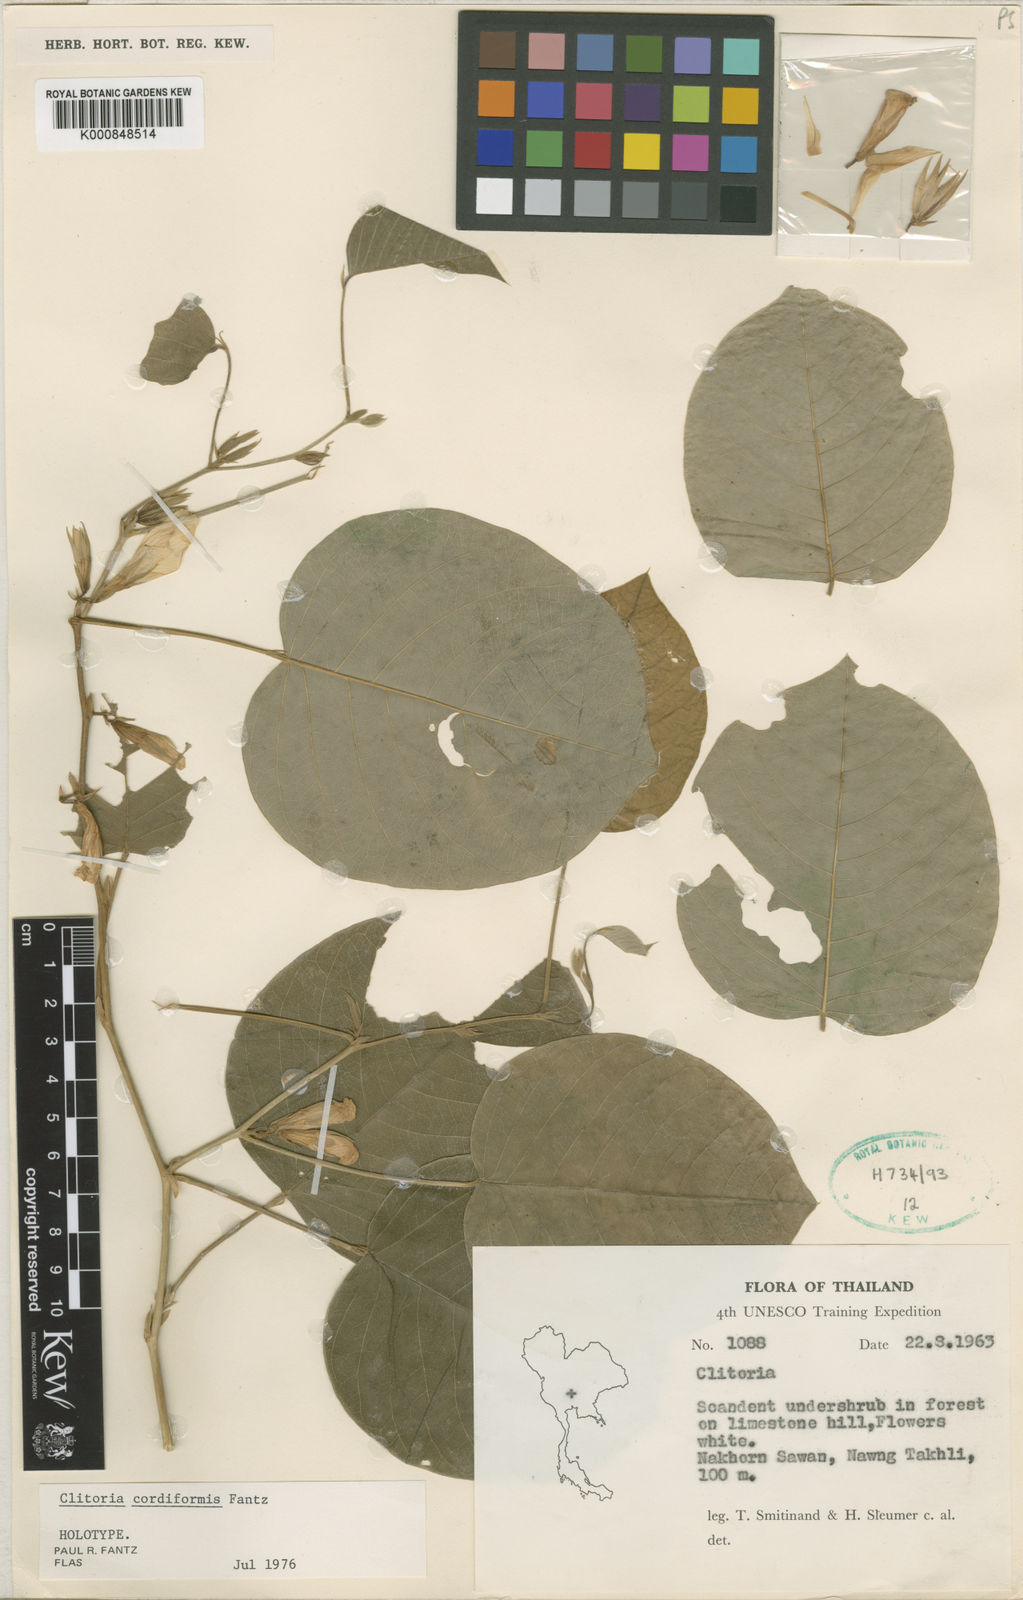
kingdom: Plantae
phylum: Tracheophyta
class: Magnoliopsida
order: Fabales
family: Fabaceae
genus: Clitoria
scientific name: Clitoria cordiformis
